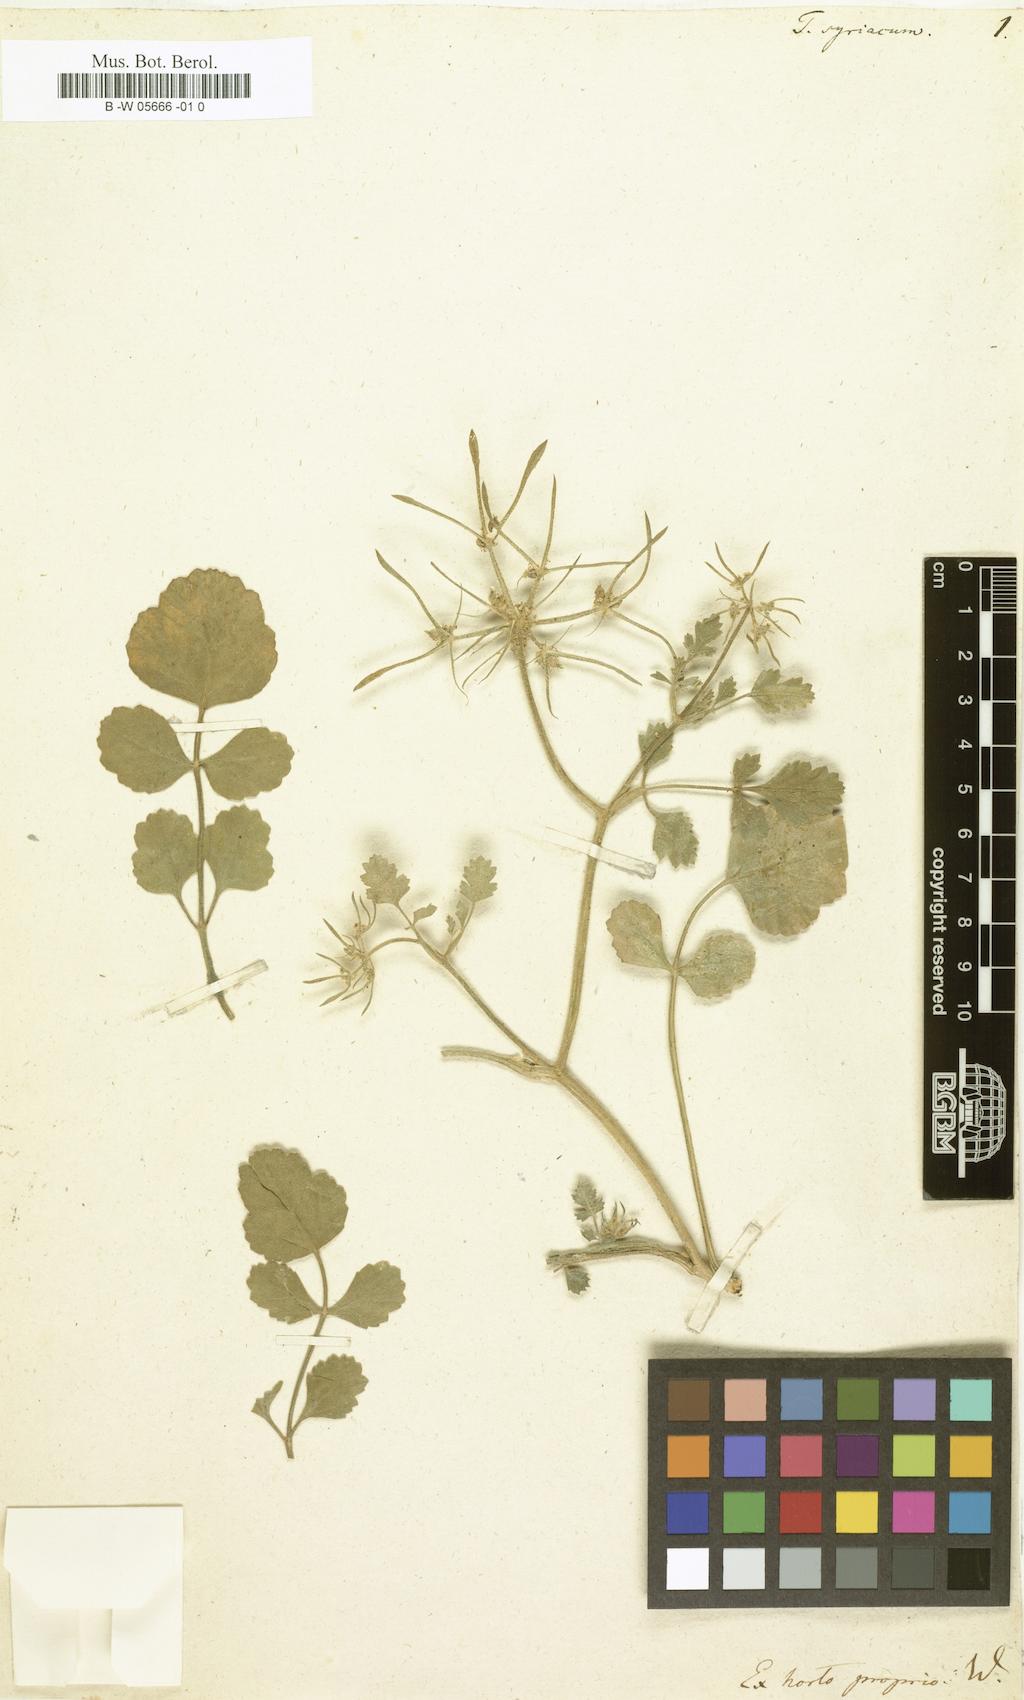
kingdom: Plantae
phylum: Tracheophyta
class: Magnoliopsida
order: Apiales
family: Apiaceae
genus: Tordylium
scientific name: Tordylium syriacum
